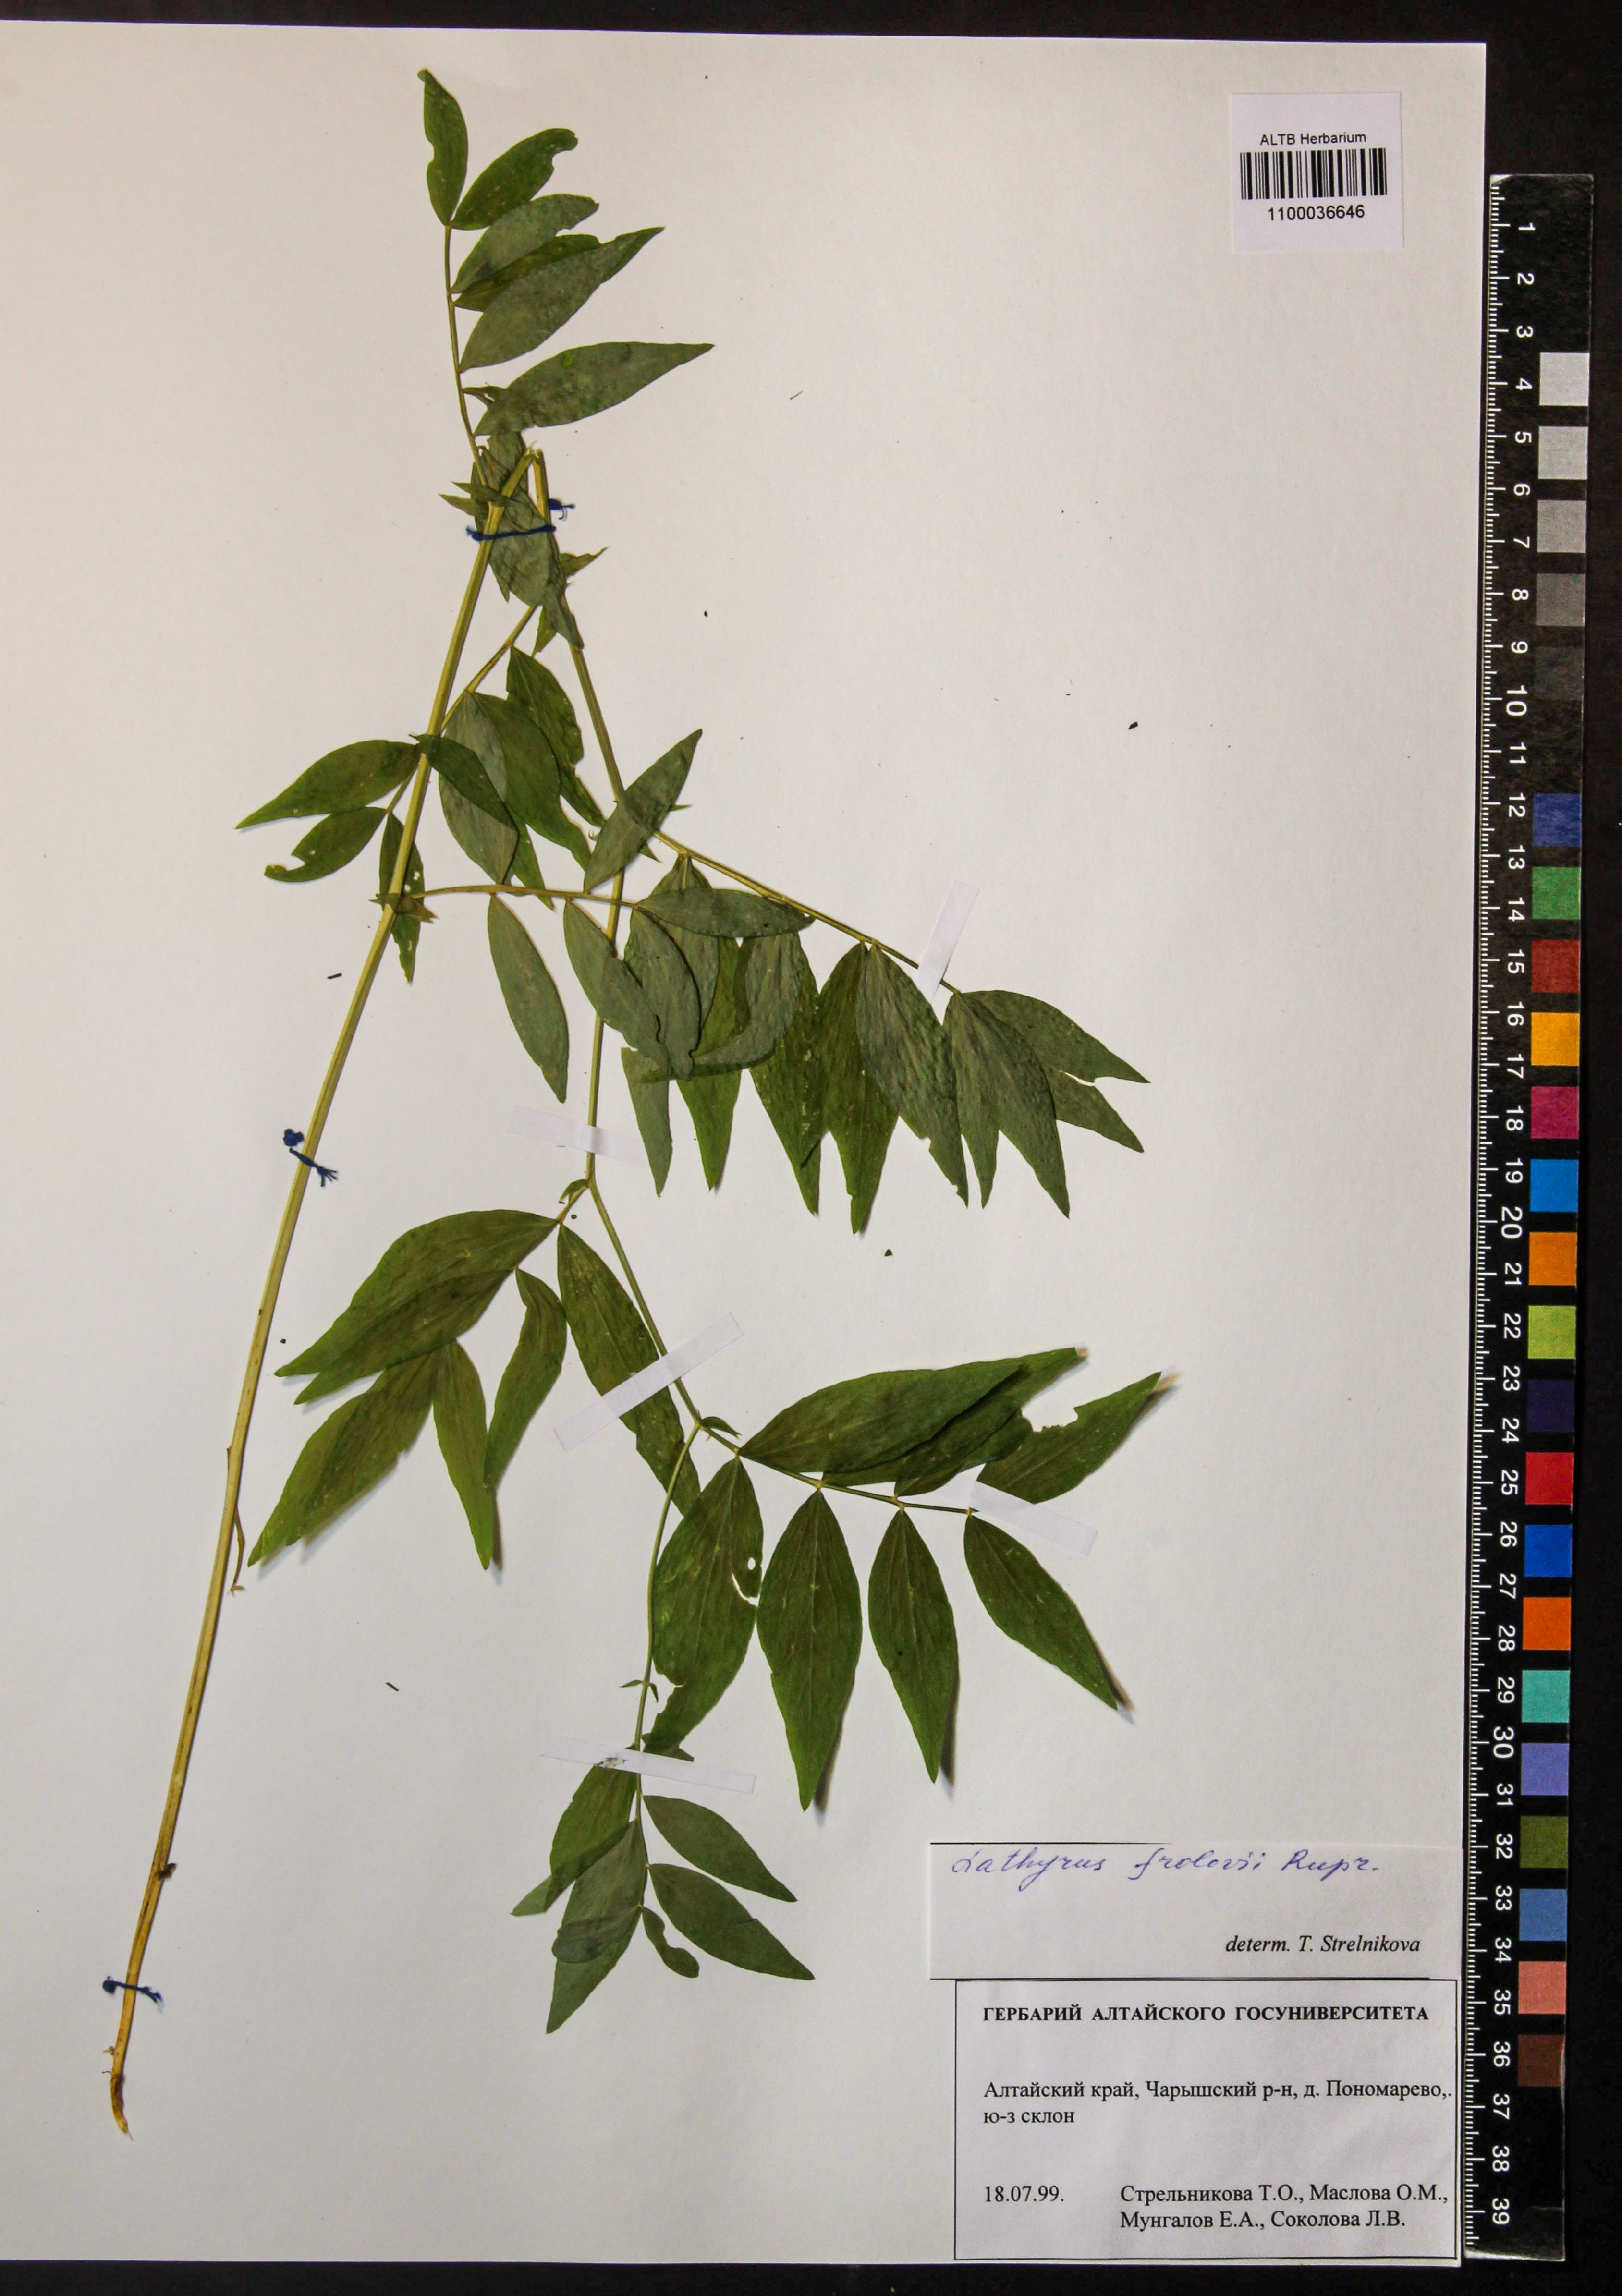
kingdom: Plantae
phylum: Tracheophyta
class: Magnoliopsida
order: Fabales
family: Fabaceae
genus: Lathyrus
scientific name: Lathyrus frolovii
